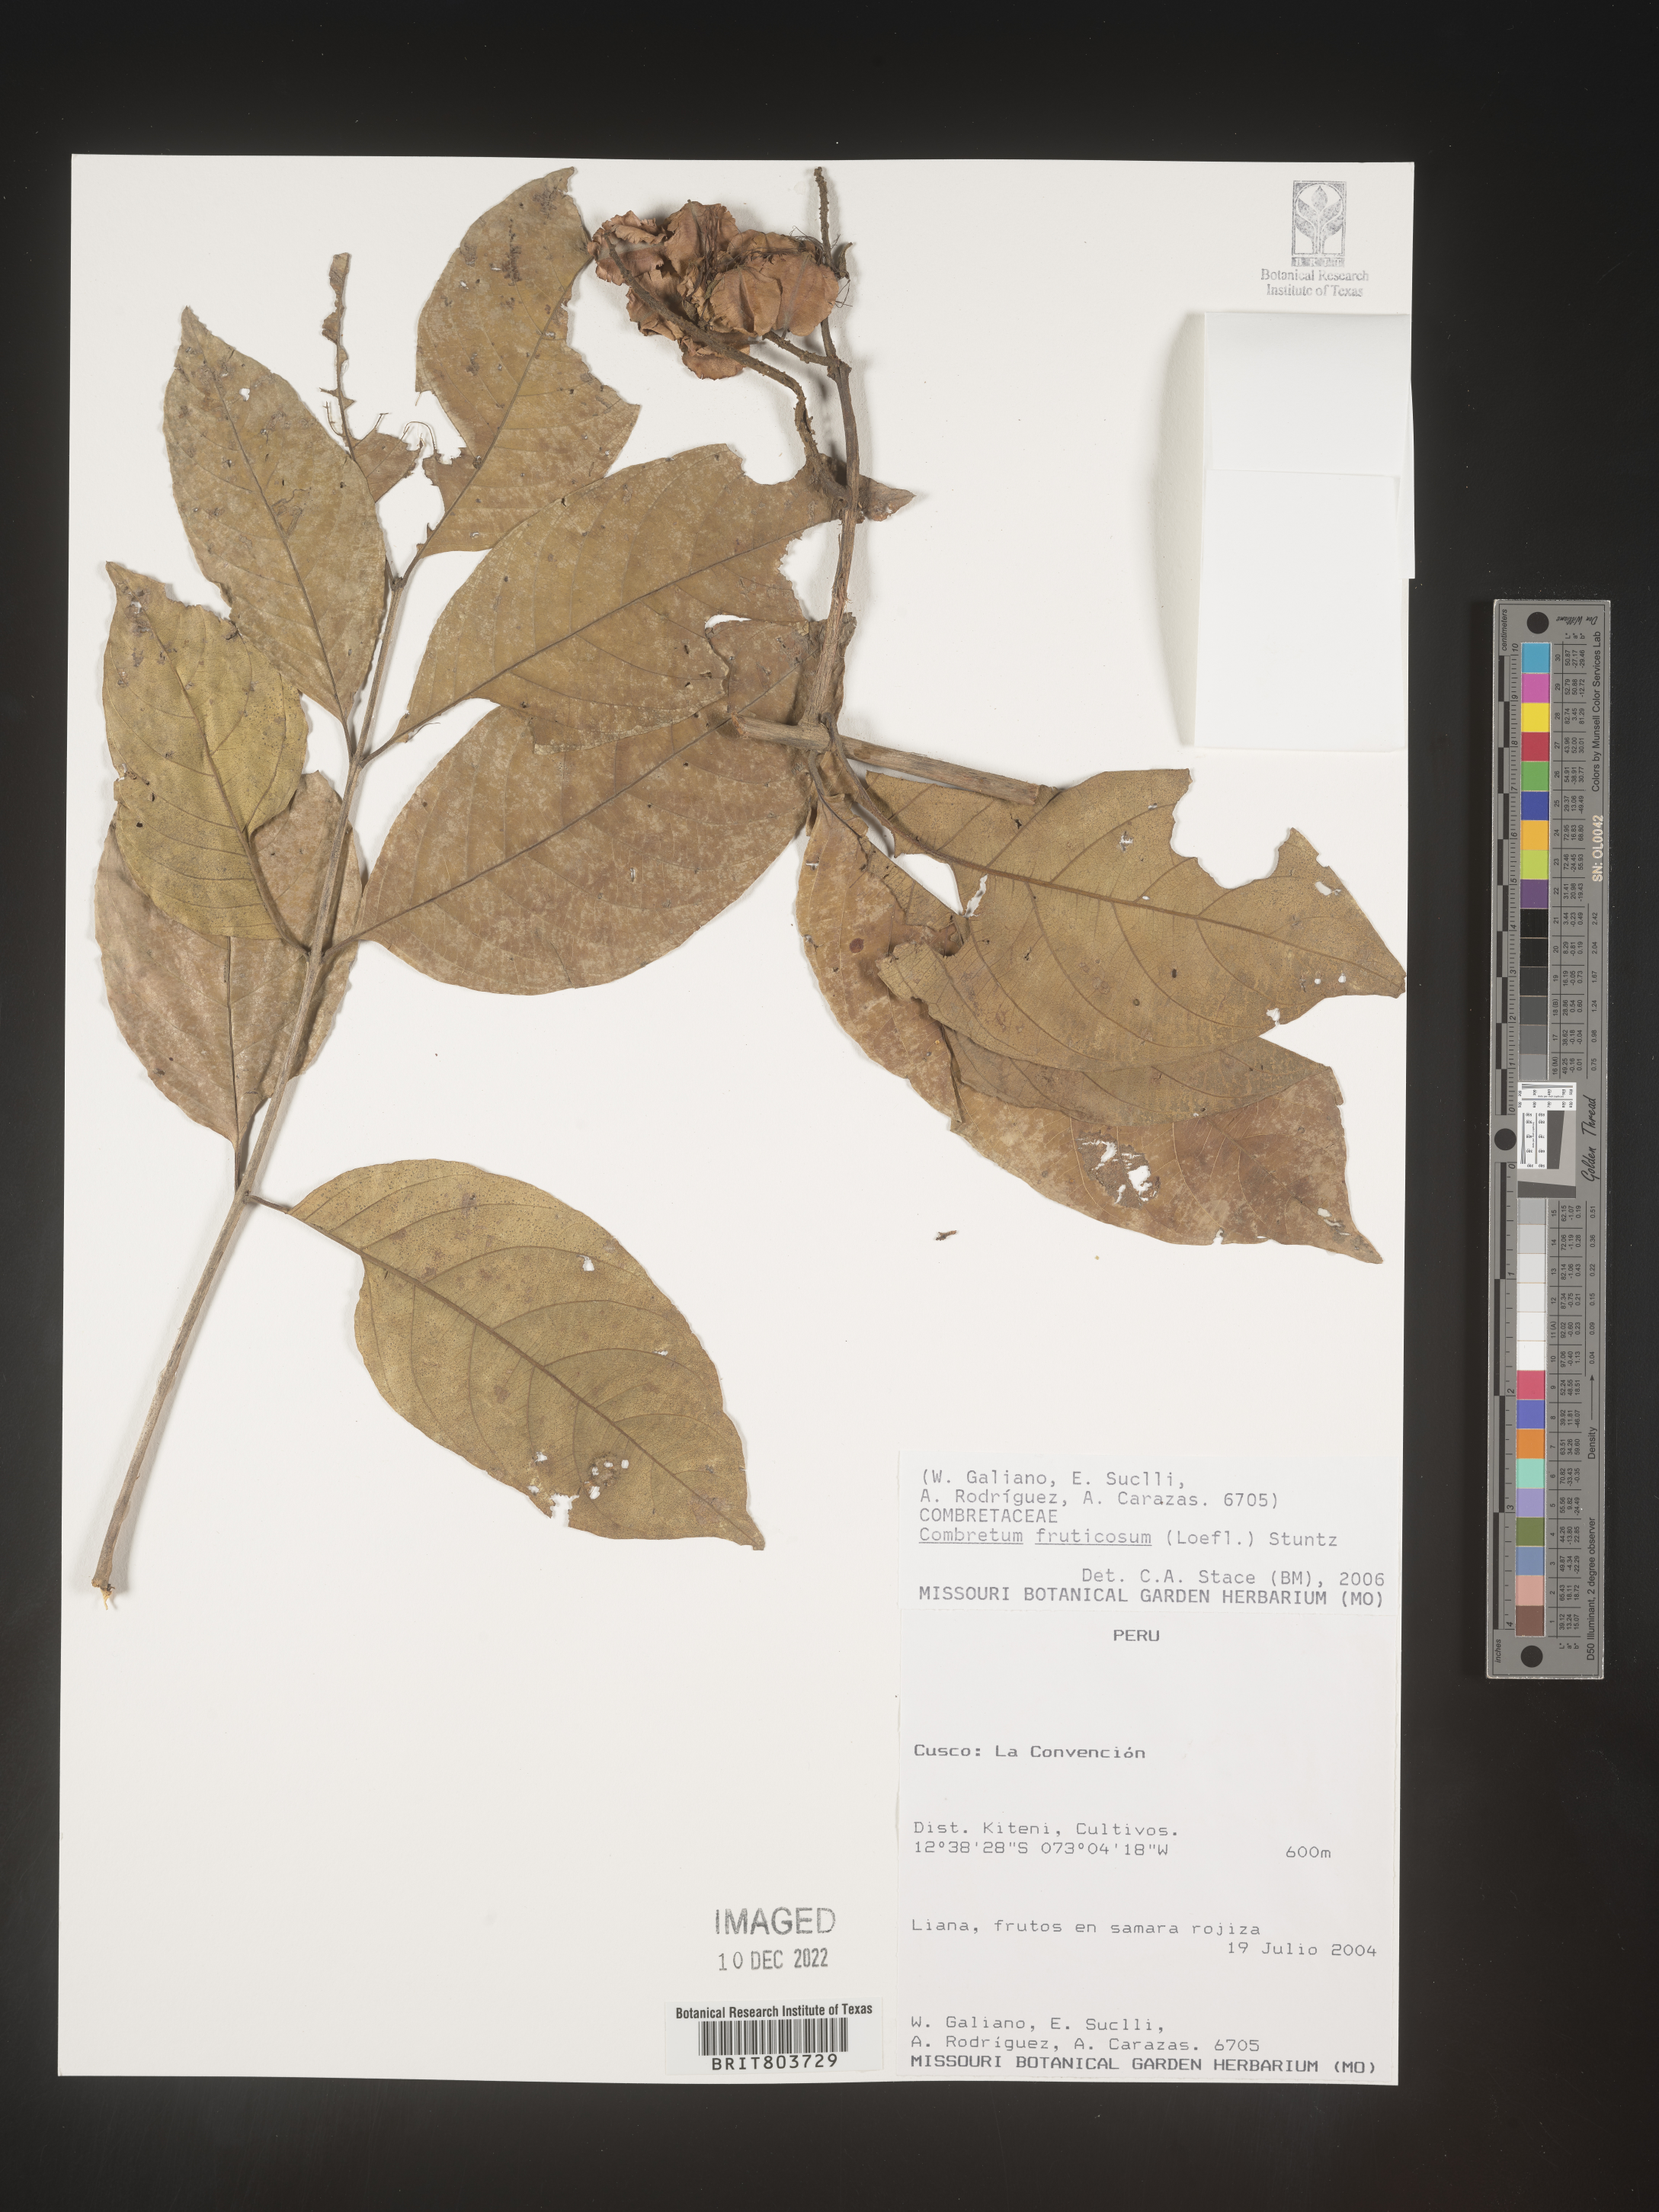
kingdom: Plantae
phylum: Tracheophyta
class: Magnoliopsida
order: Myrtales
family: Combretaceae
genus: Combretum
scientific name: Combretum
